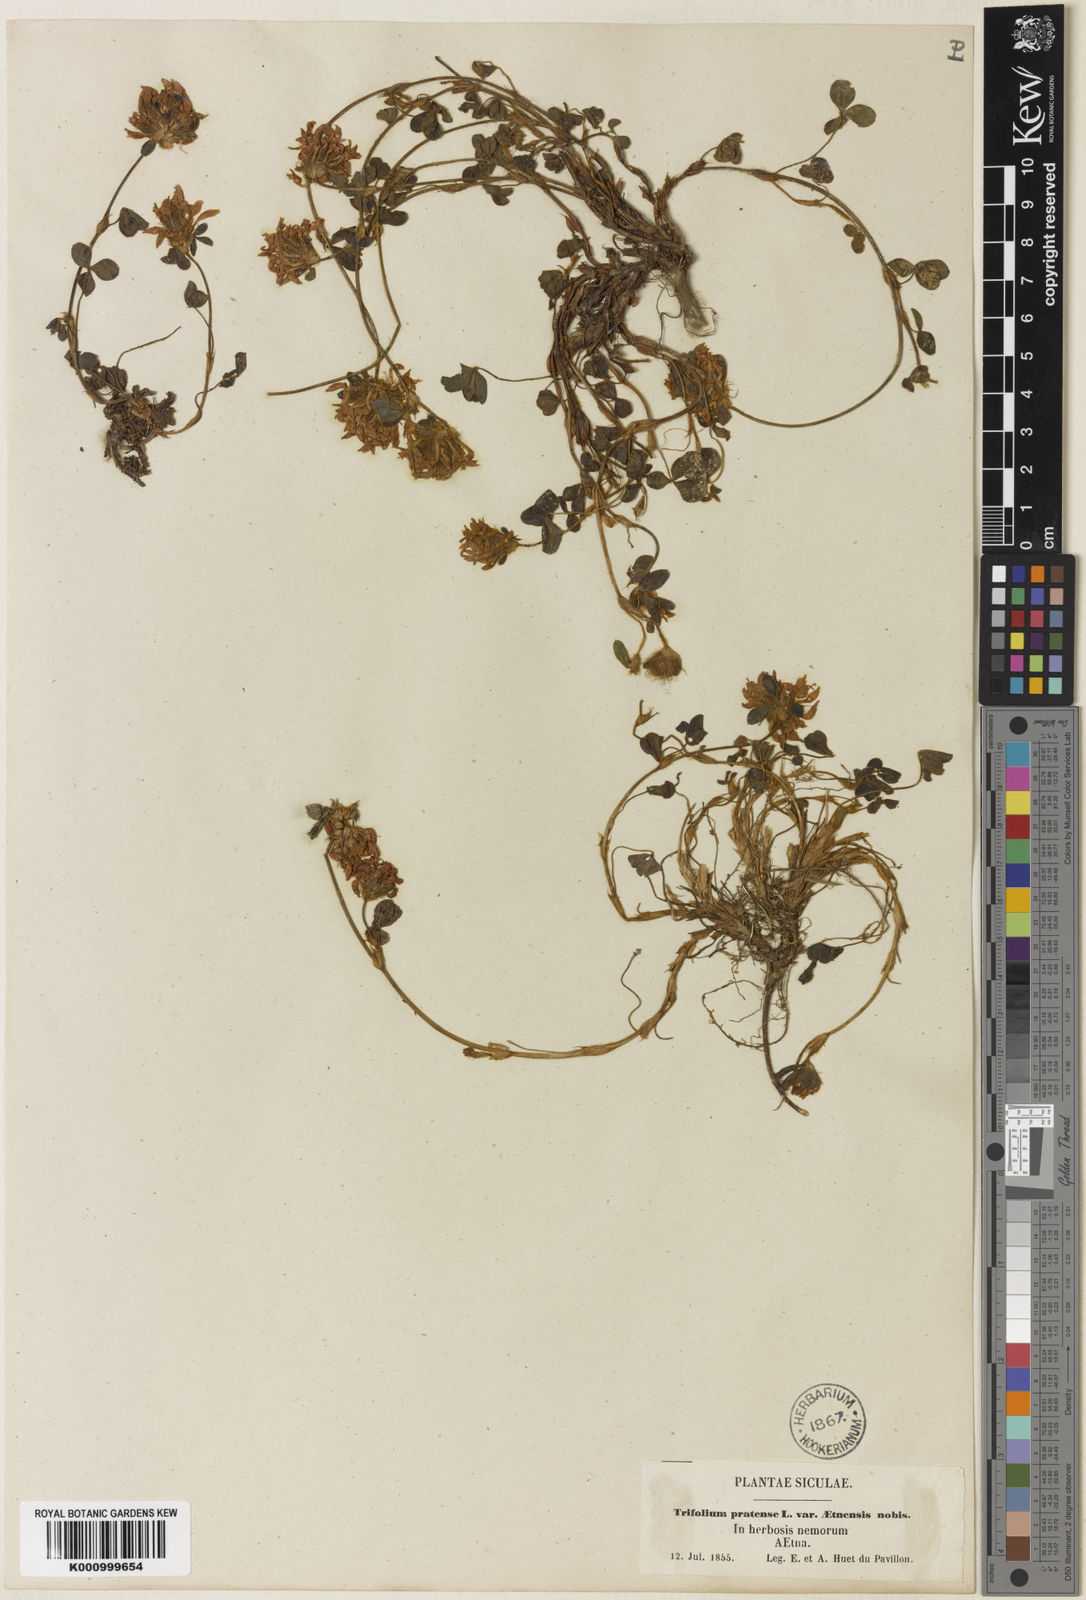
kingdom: Plantae
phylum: Tracheophyta
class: Magnoliopsida
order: Fabales
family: Fabaceae
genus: Trifolium
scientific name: Trifolium pratense
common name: Red clover
